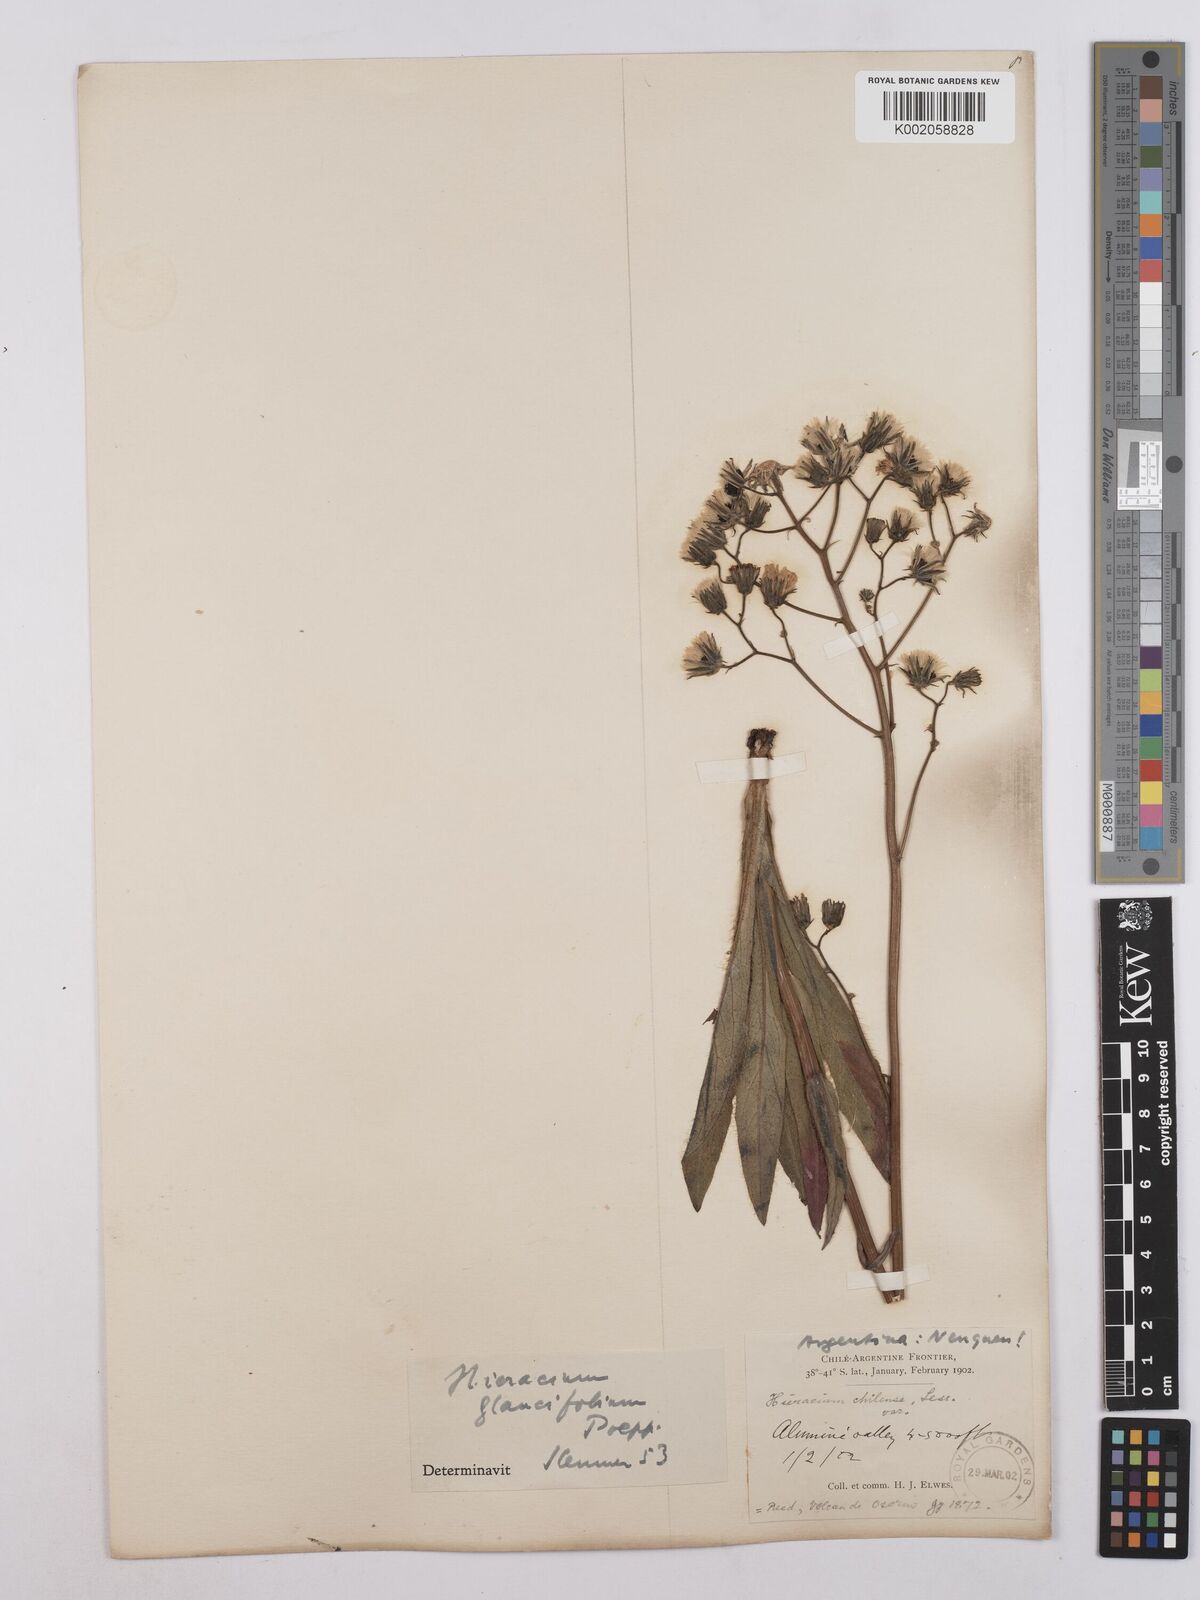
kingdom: Plantae
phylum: Tracheophyta
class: Magnoliopsida
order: Asterales
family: Asteraceae
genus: Hieracium
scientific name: Hieracium chilense
